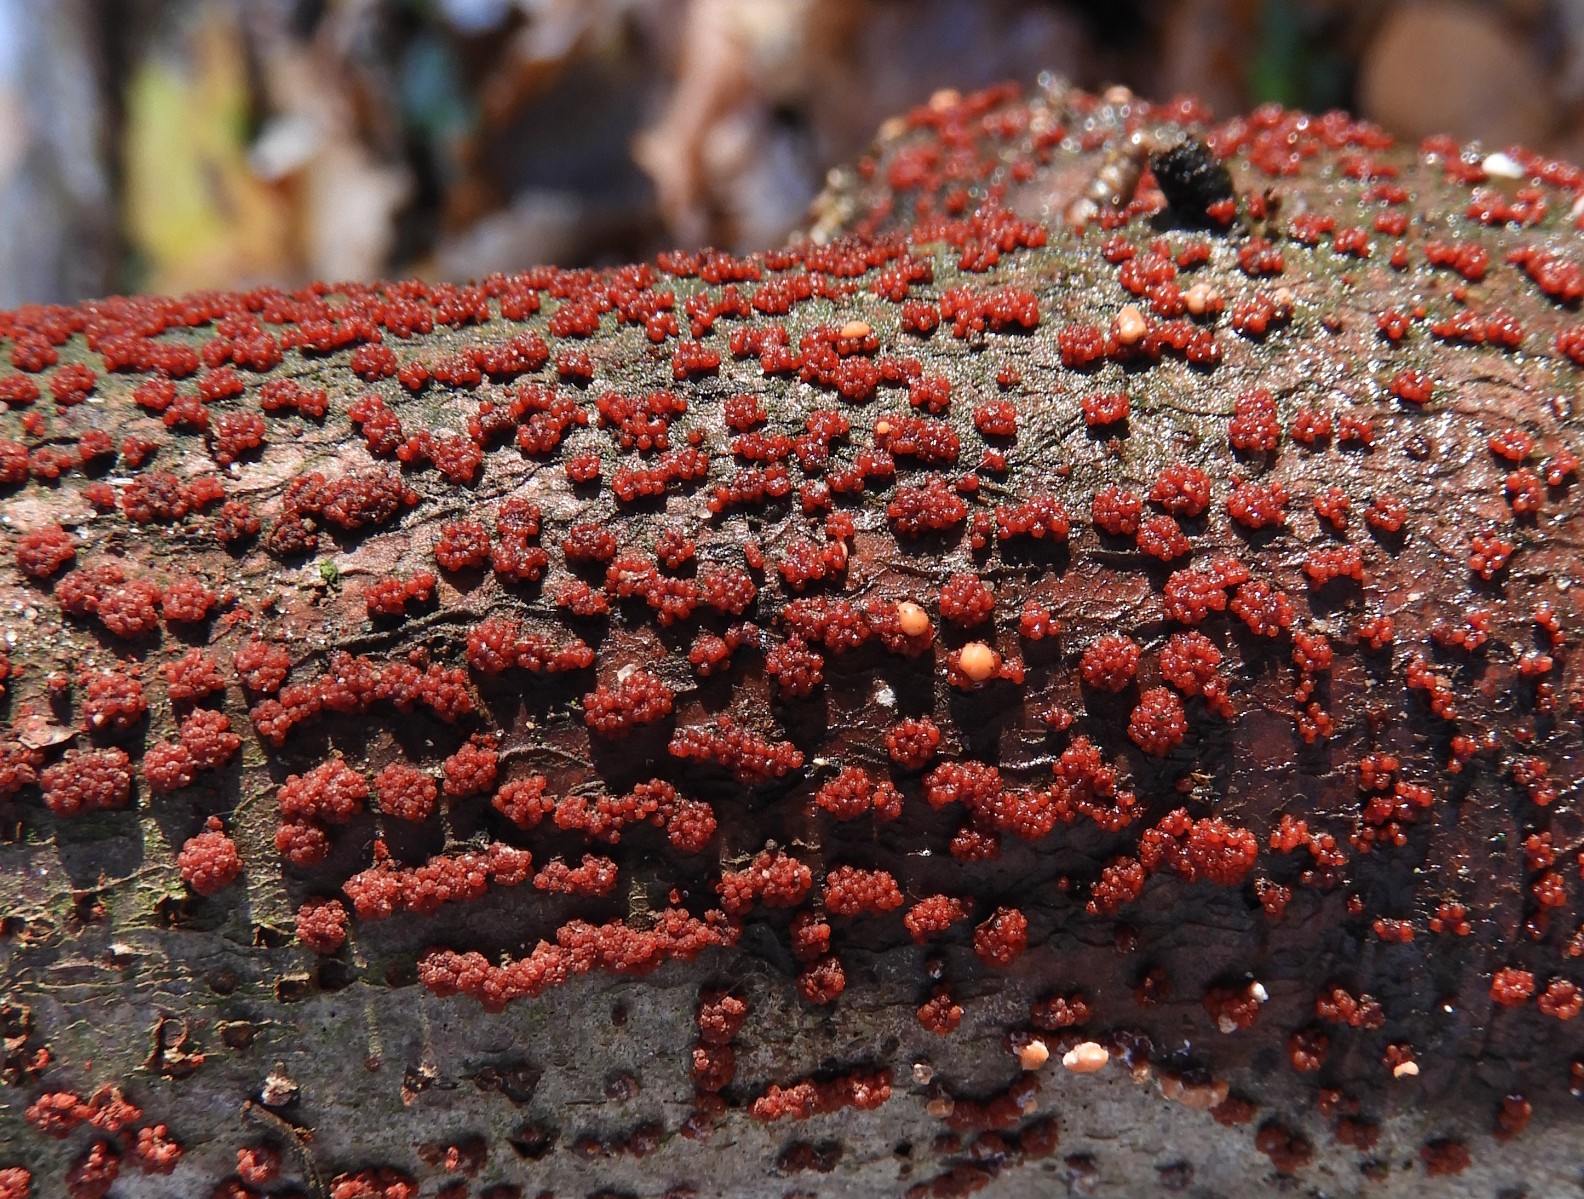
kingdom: Fungi
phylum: Ascomycota
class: Sordariomycetes
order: Hypocreales
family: Nectriaceae
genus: Nectria
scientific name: Nectria cinnabarina
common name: almindelig cinnobersvamp
